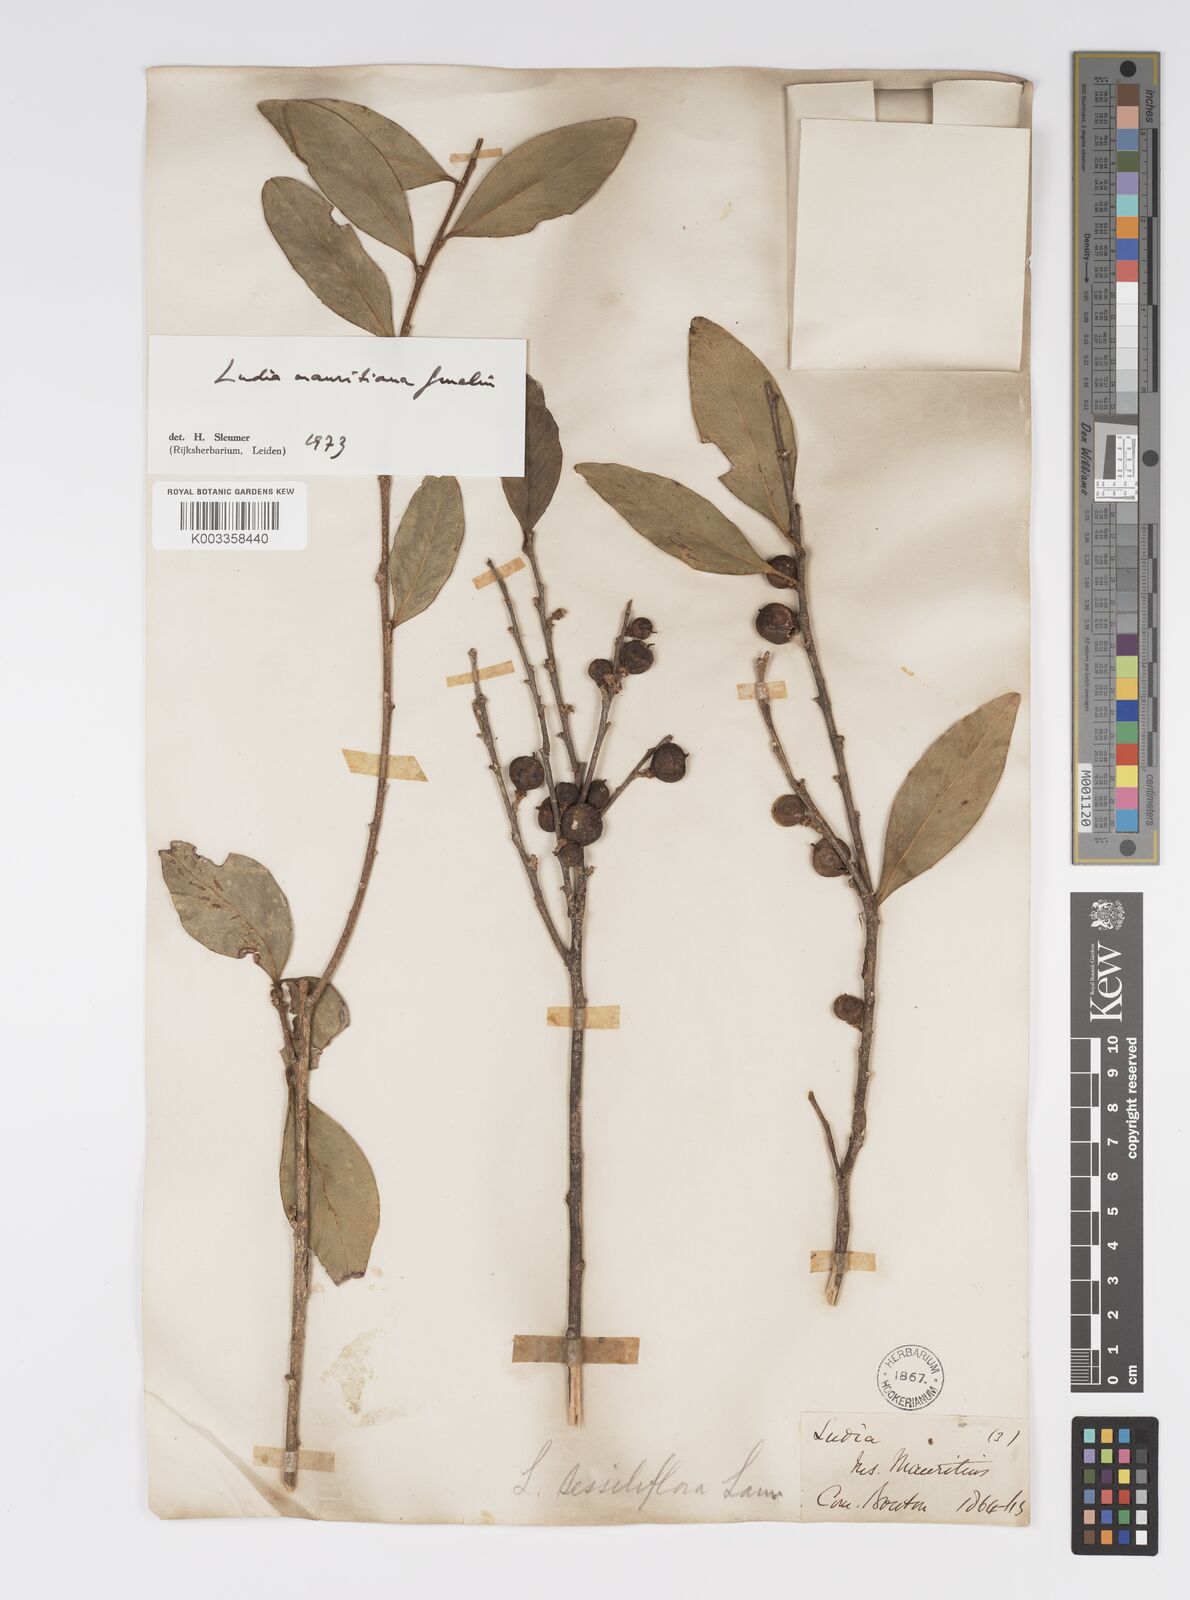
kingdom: Plantae
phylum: Tracheophyta
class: Magnoliopsida
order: Malpighiales
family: Salicaceae
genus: Ludia
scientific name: Ludia mauritiana
